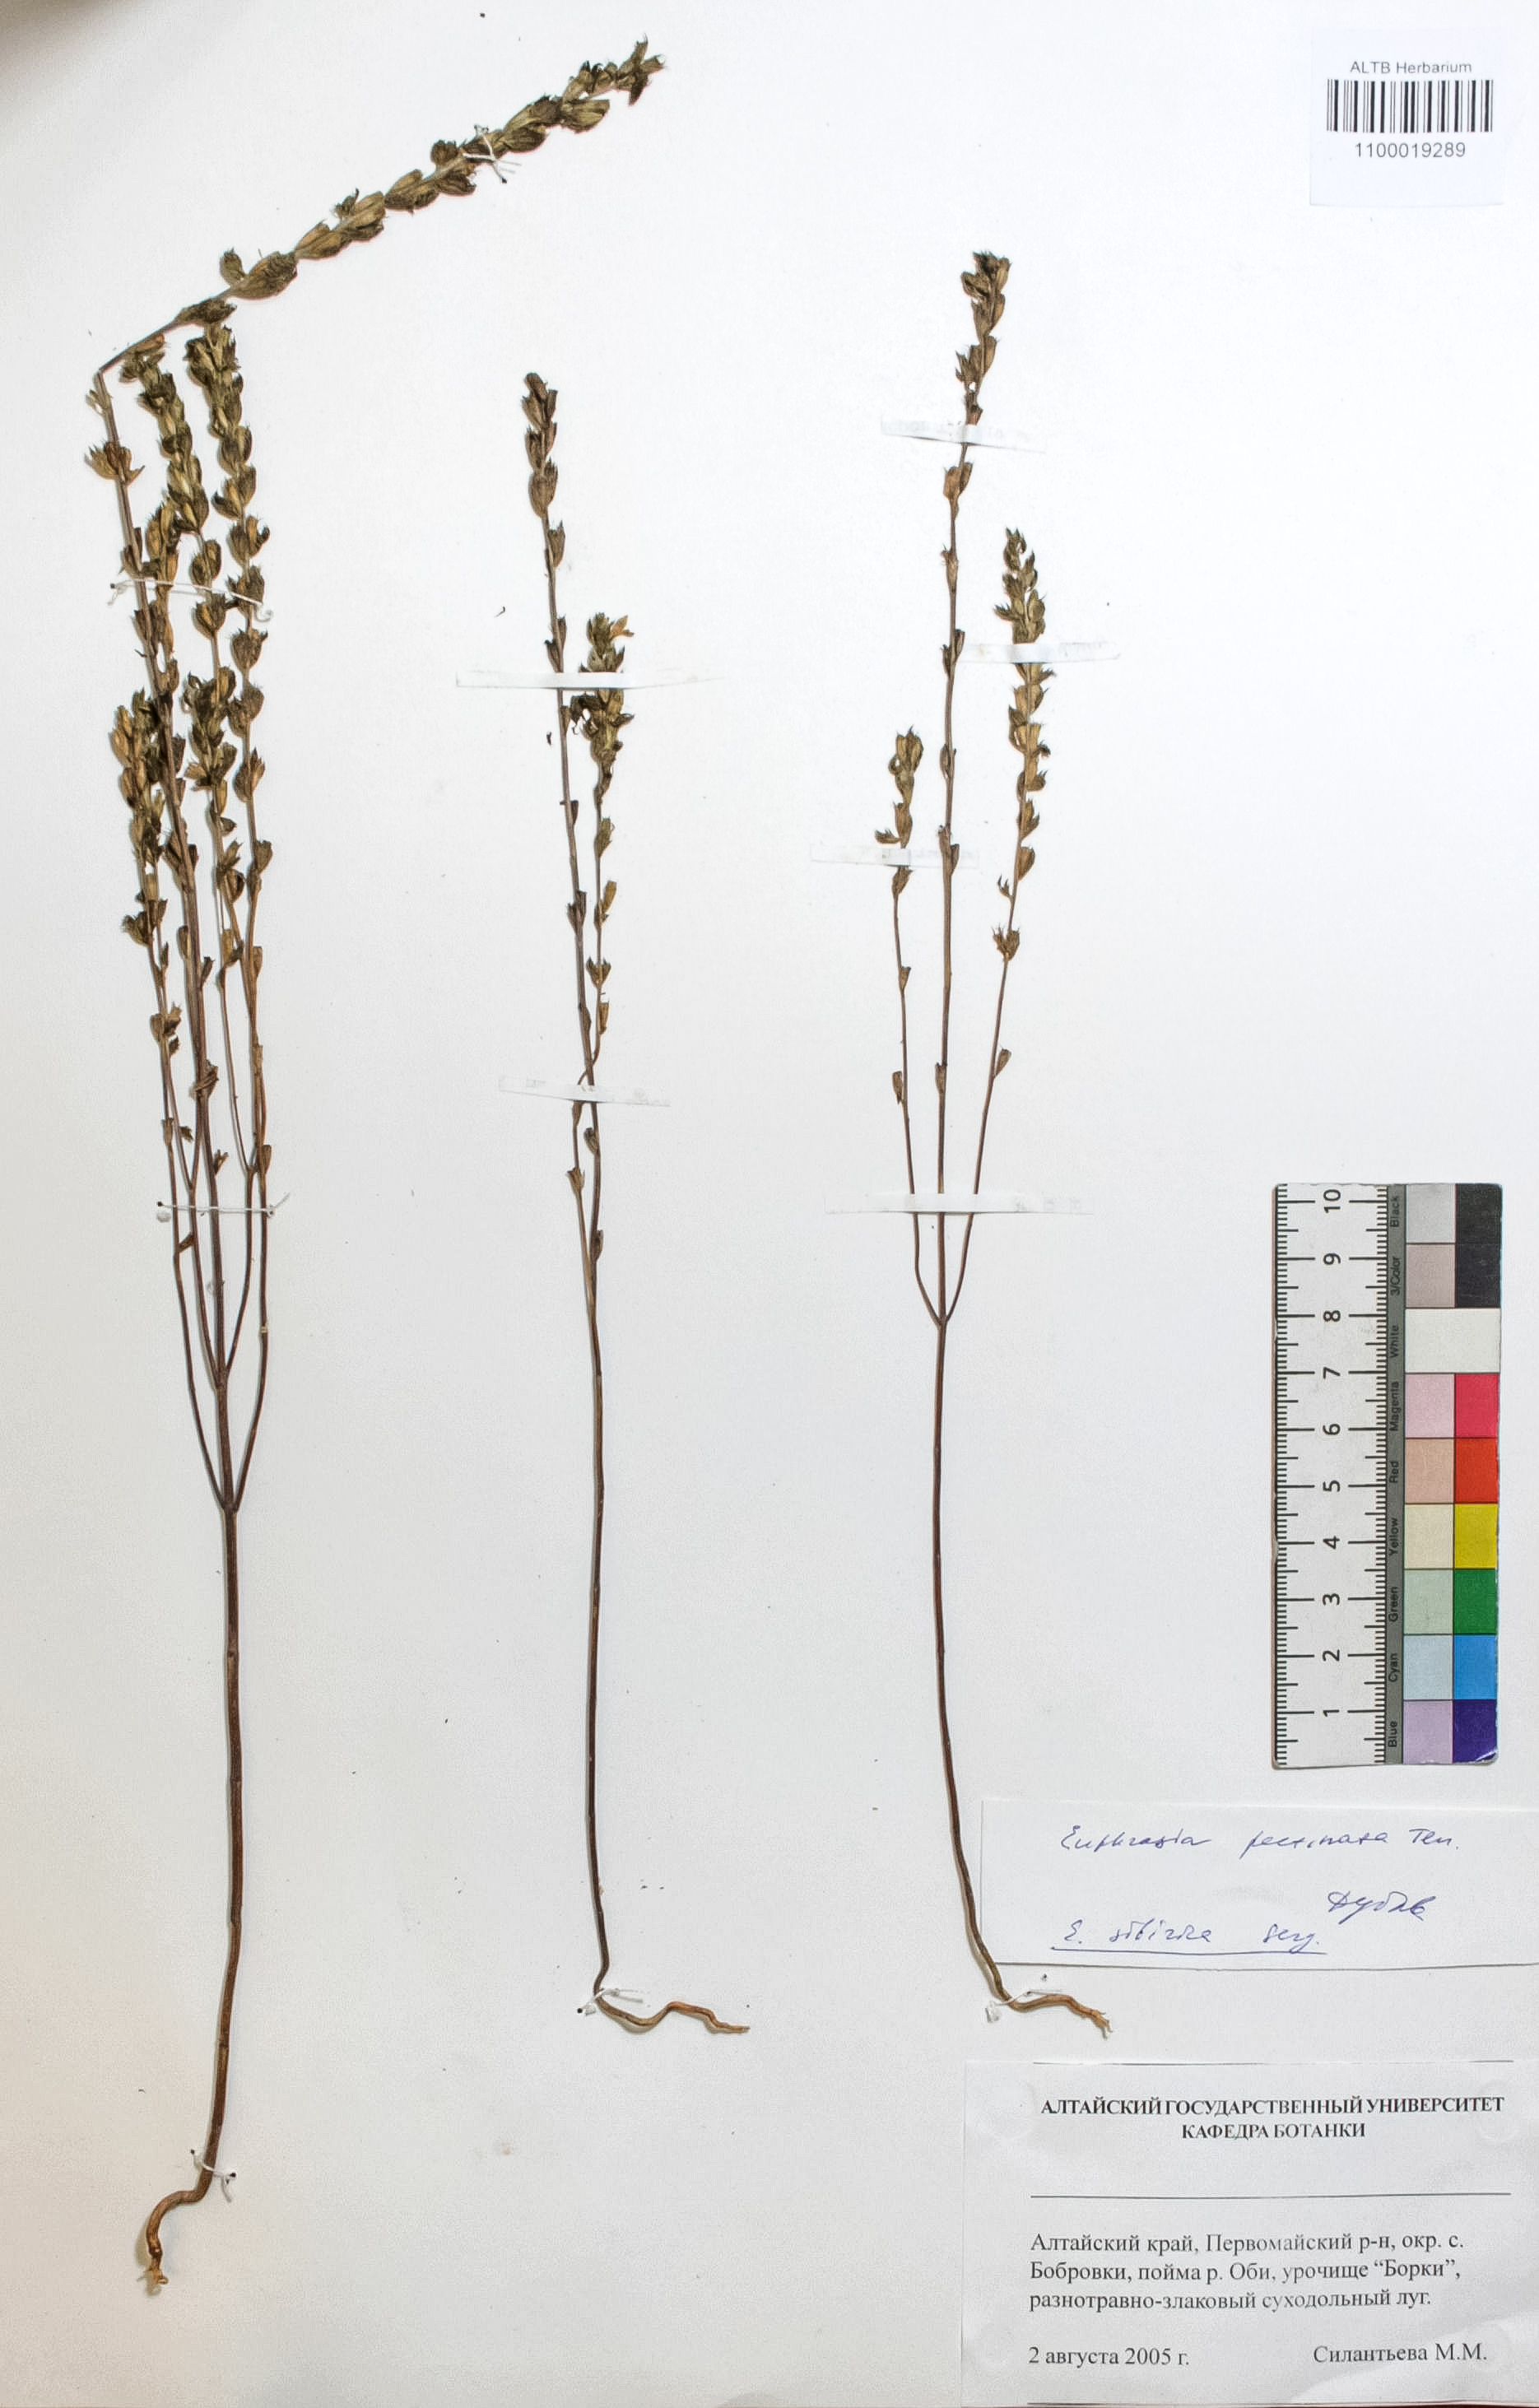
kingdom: Plantae
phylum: Tracheophyta
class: Magnoliopsida
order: Lamiales
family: Orobanchaceae
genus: Euphrasia
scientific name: Euphrasia pectinata
